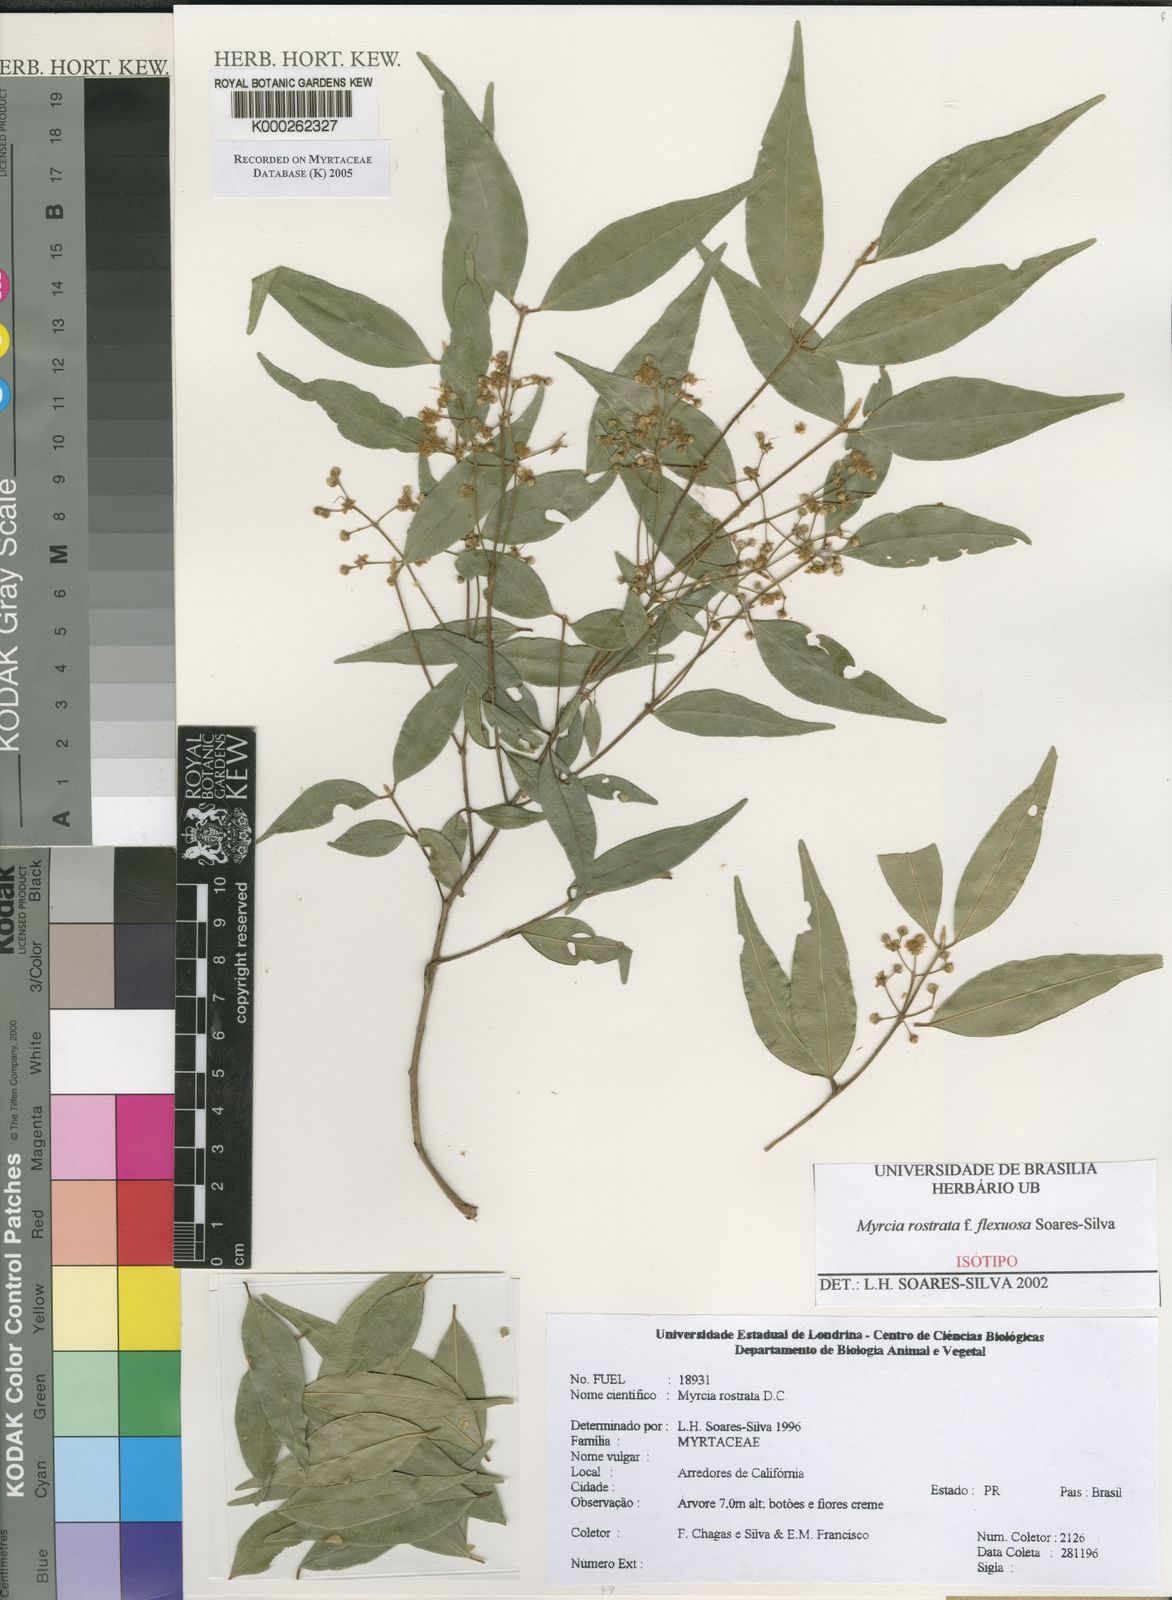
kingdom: Plantae
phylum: Tracheophyta
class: Magnoliopsida
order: Myrtales
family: Myrtaceae
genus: Myrcia
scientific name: Myrcia splendens
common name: Surinam cherry
